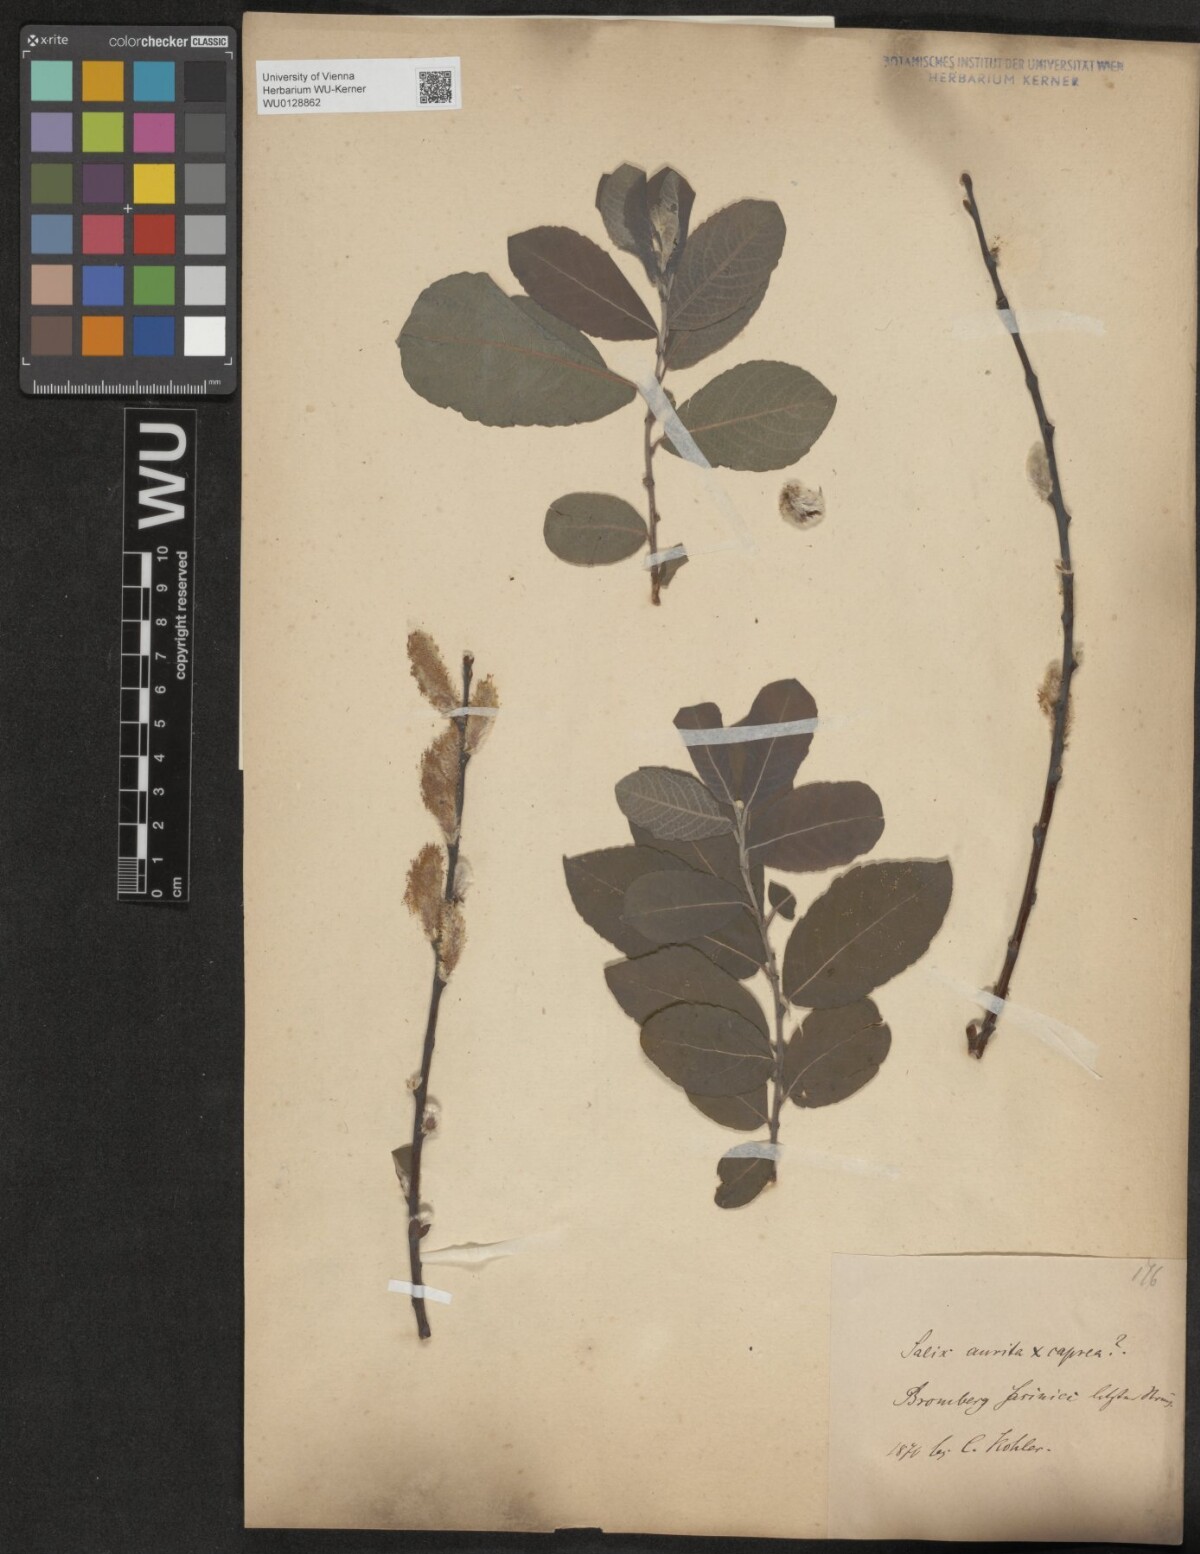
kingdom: Plantae
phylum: Tracheophyta
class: Magnoliopsida
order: Malpighiales
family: Salicaceae
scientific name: Salicaceae
